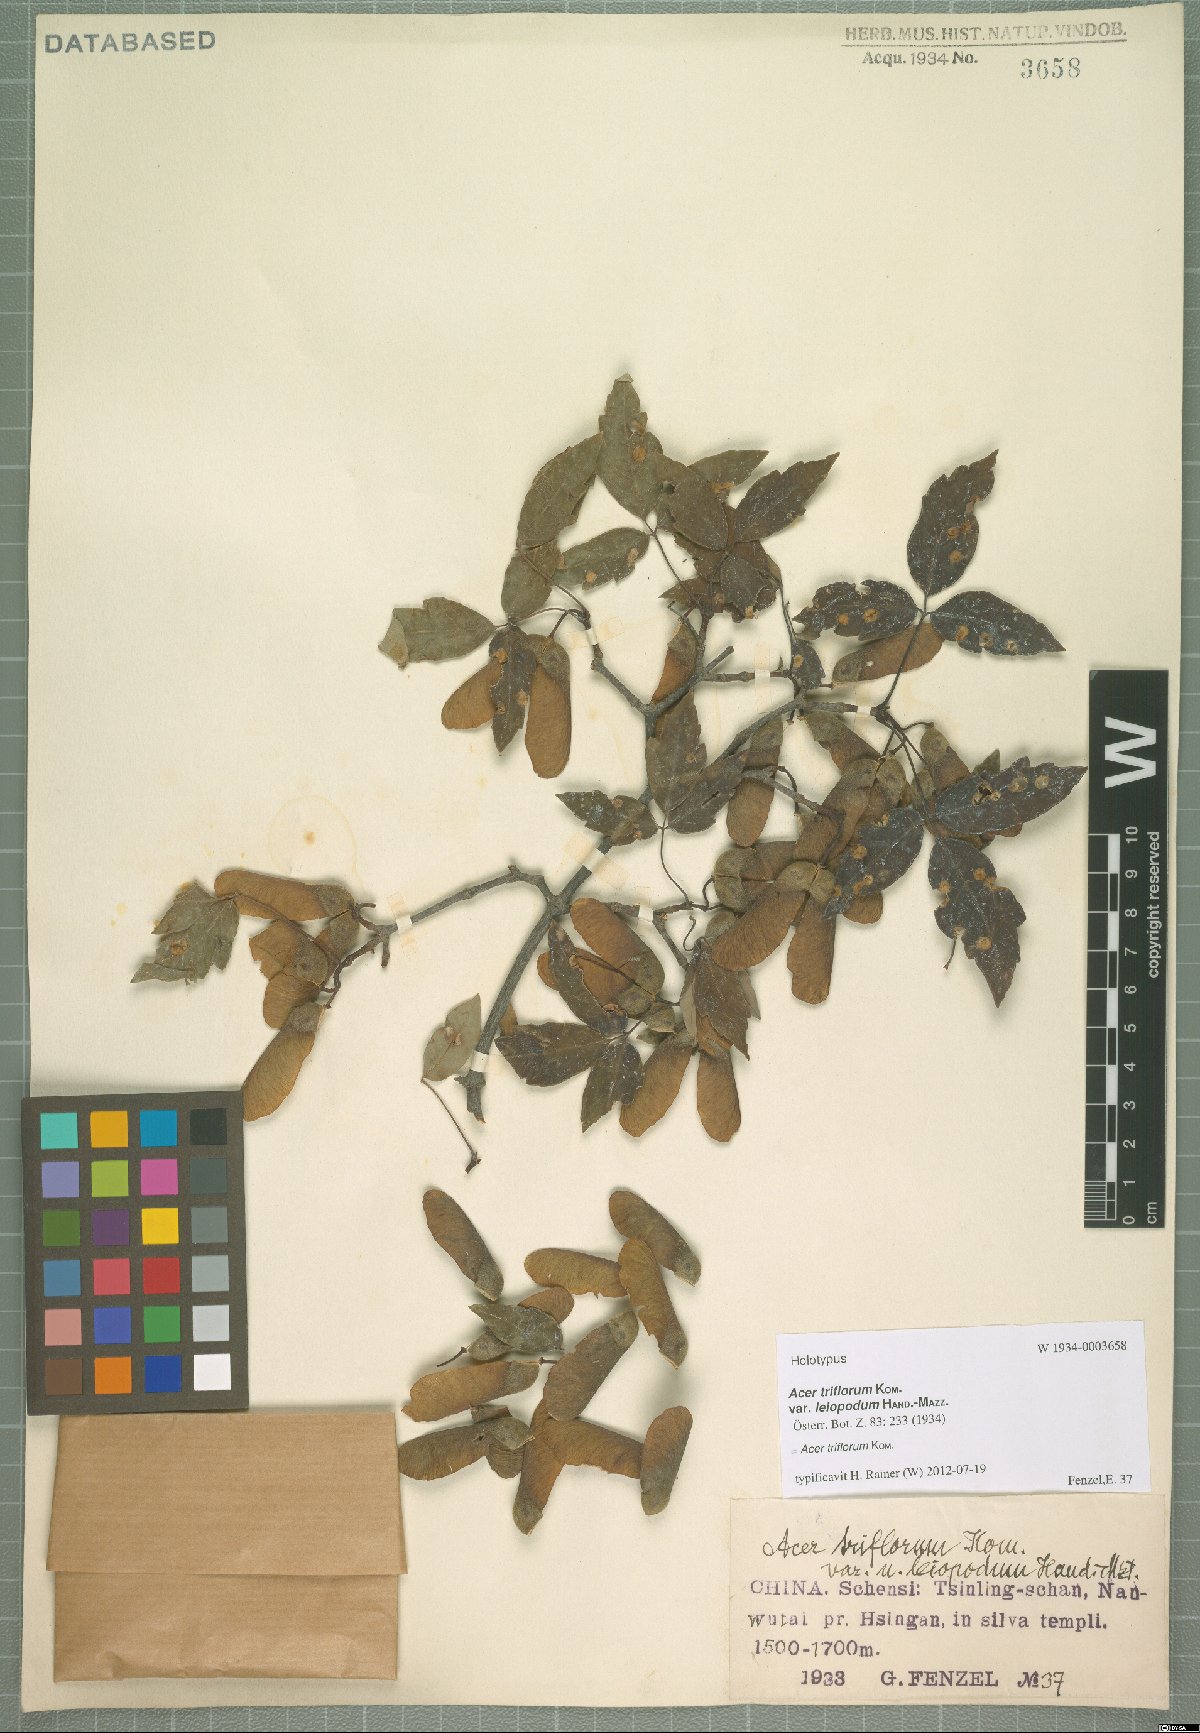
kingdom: Plantae
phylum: Tracheophyta
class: Magnoliopsida
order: Sapindales
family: Sapindaceae
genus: Acer
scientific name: Acer griseum
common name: Paperbark maple
